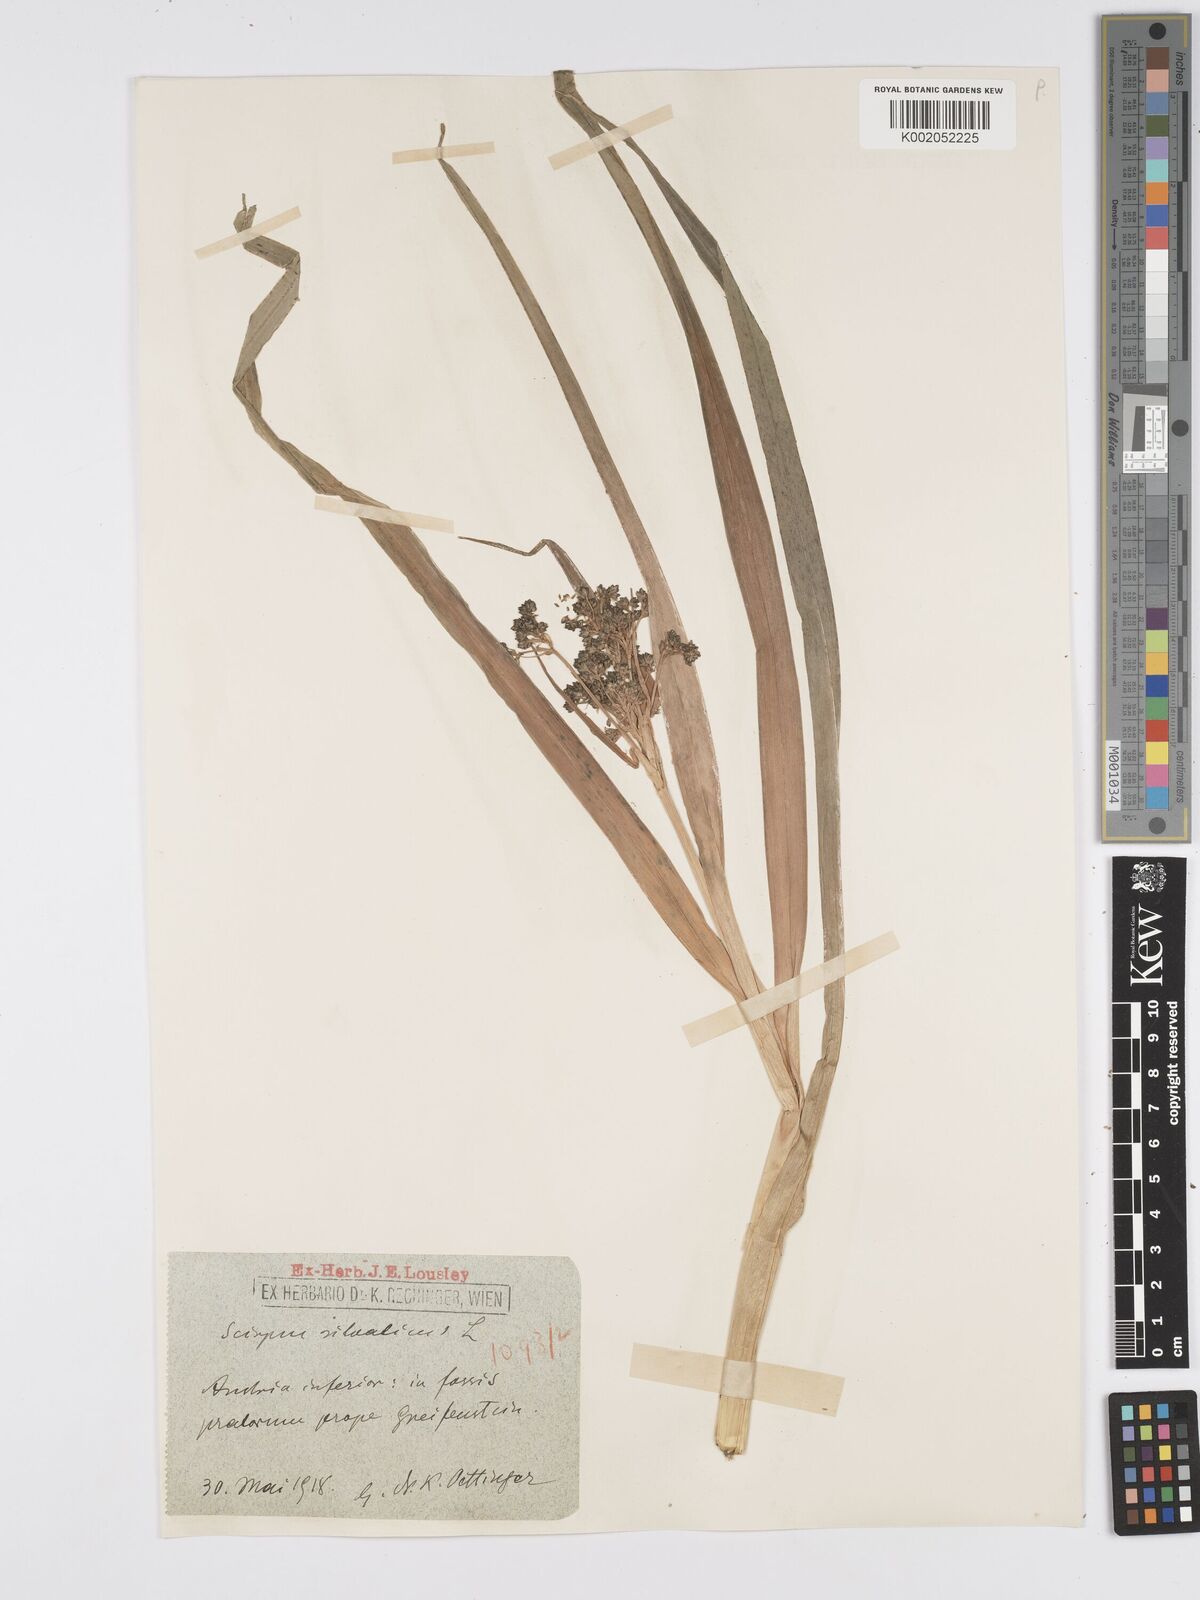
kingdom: Plantae
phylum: Tracheophyta
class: Liliopsida
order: Poales
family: Cyperaceae
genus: Scirpus
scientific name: Scirpus sylvaticus
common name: Wood club-rush
